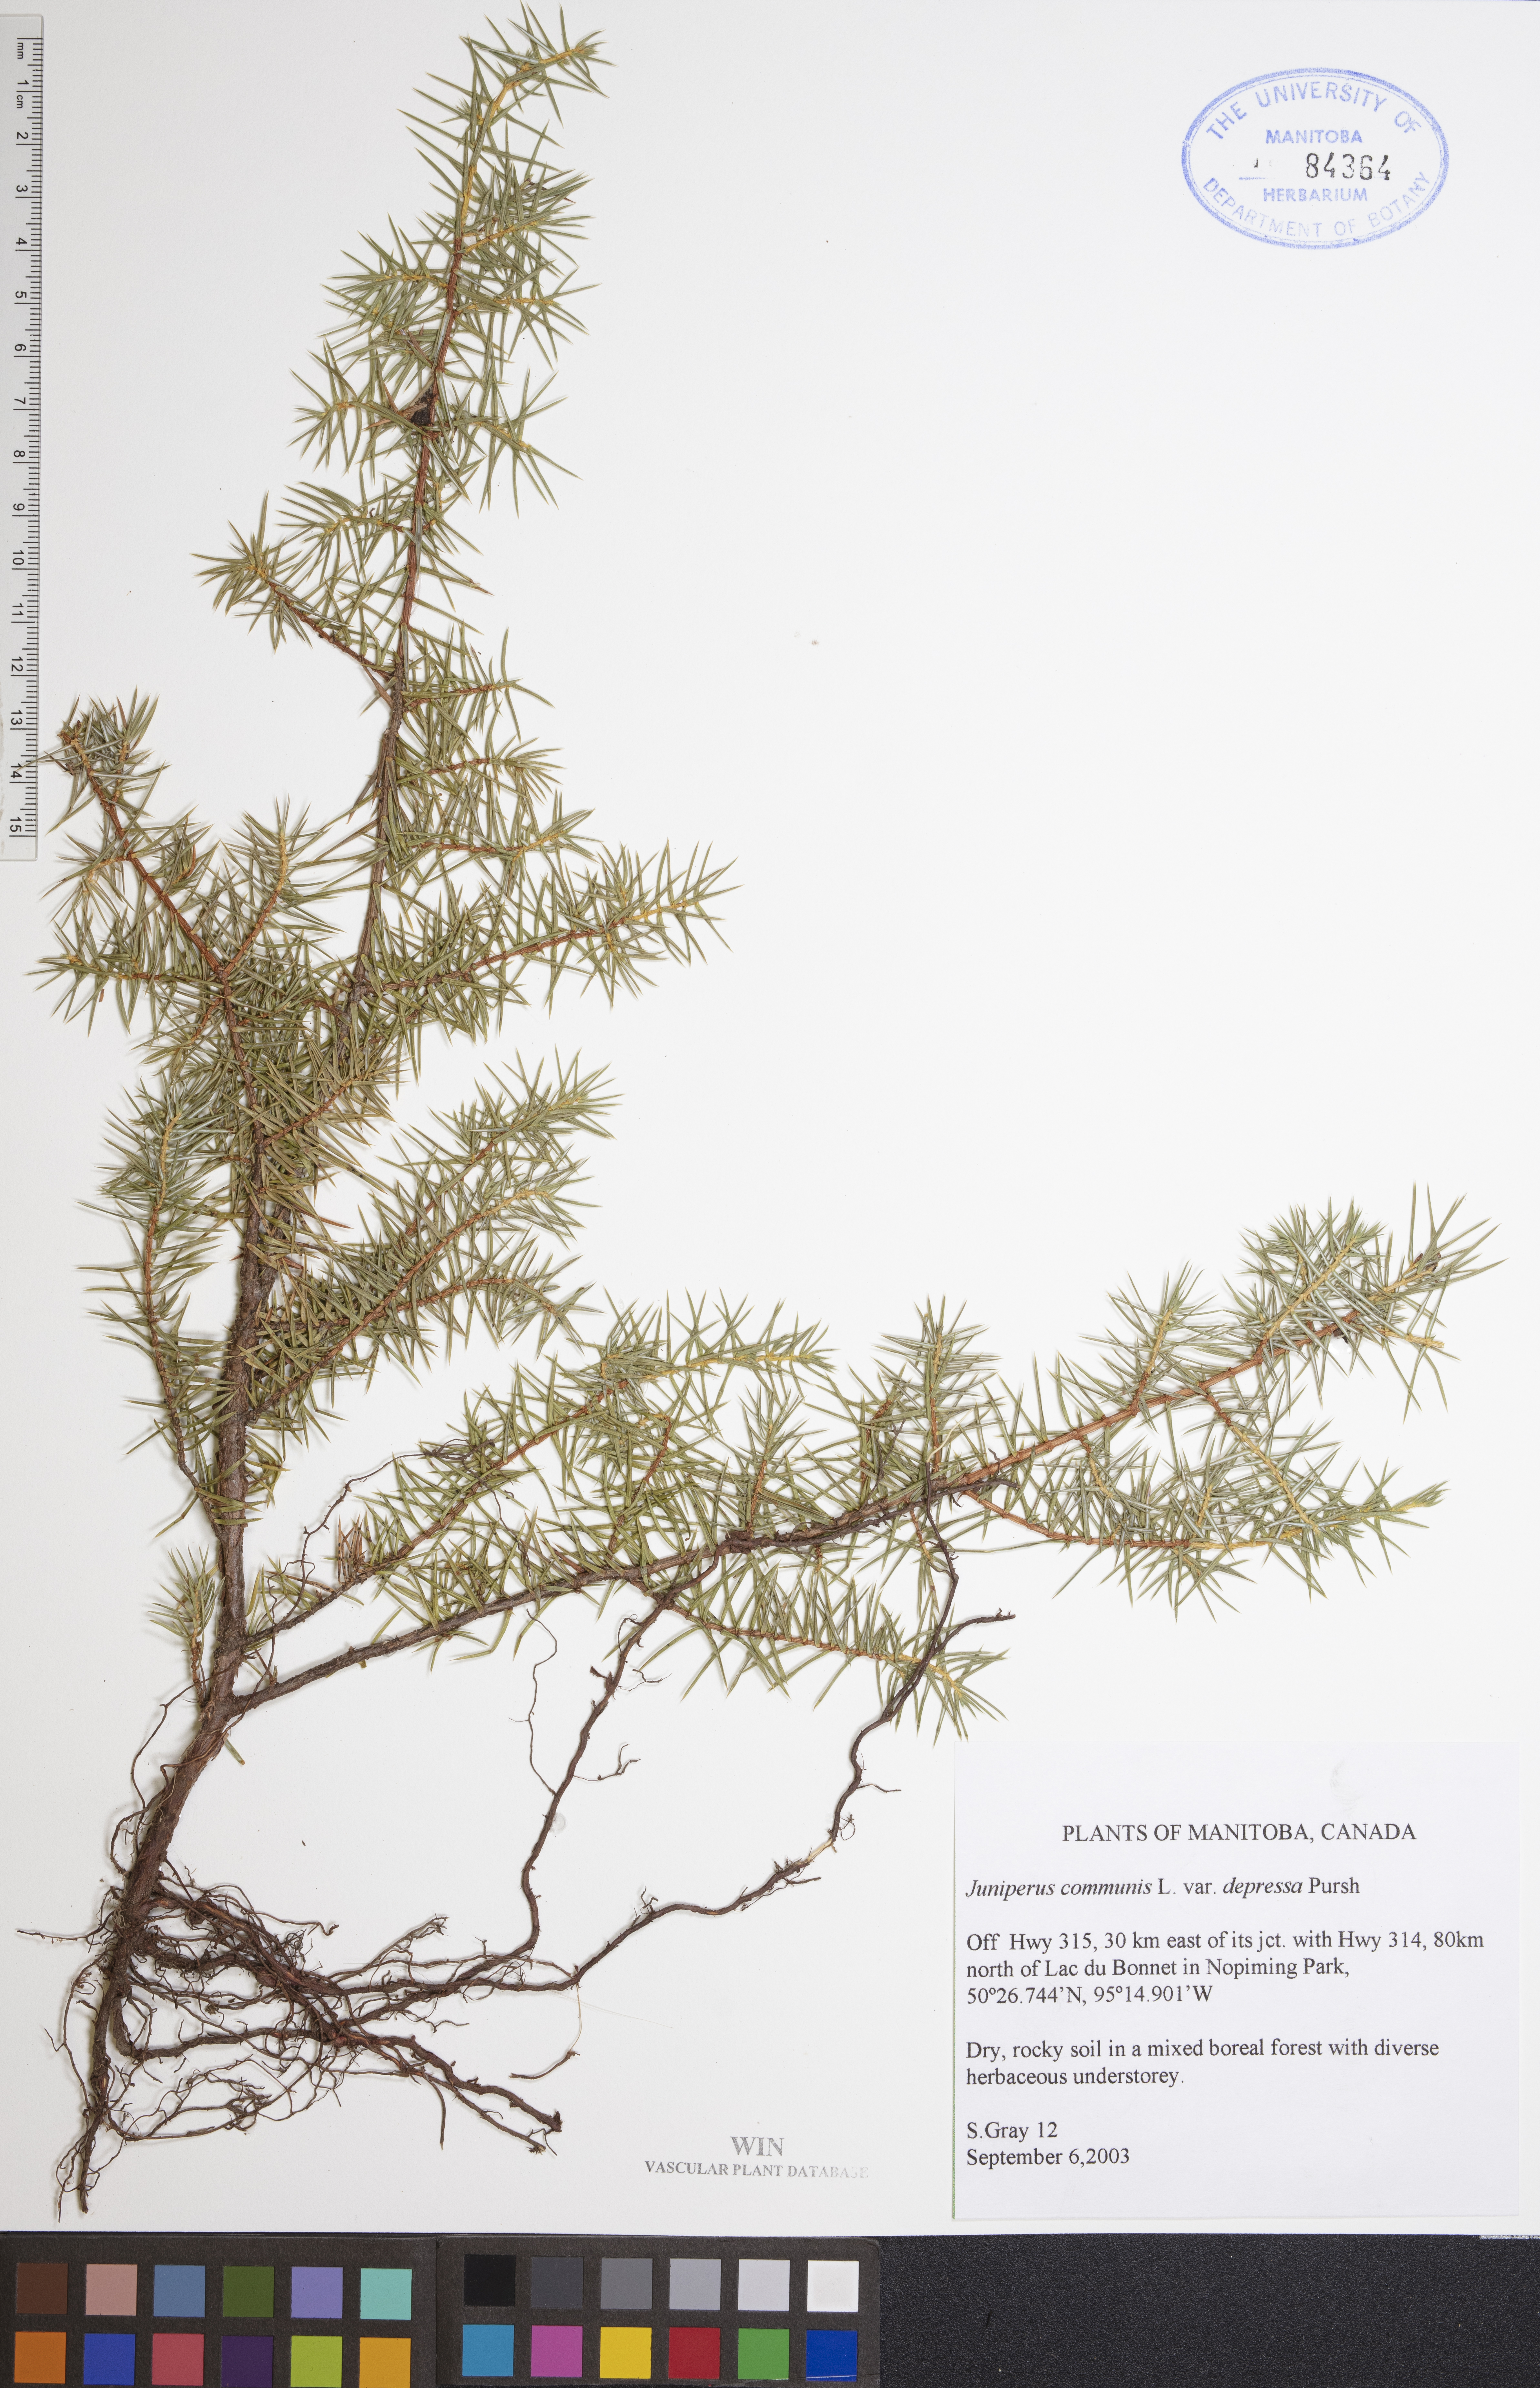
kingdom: Plantae
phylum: Tracheophyta
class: Pinopsida
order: Pinales
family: Cupressaceae
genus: Juniperus
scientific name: Juniperus communis
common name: Common juniper
